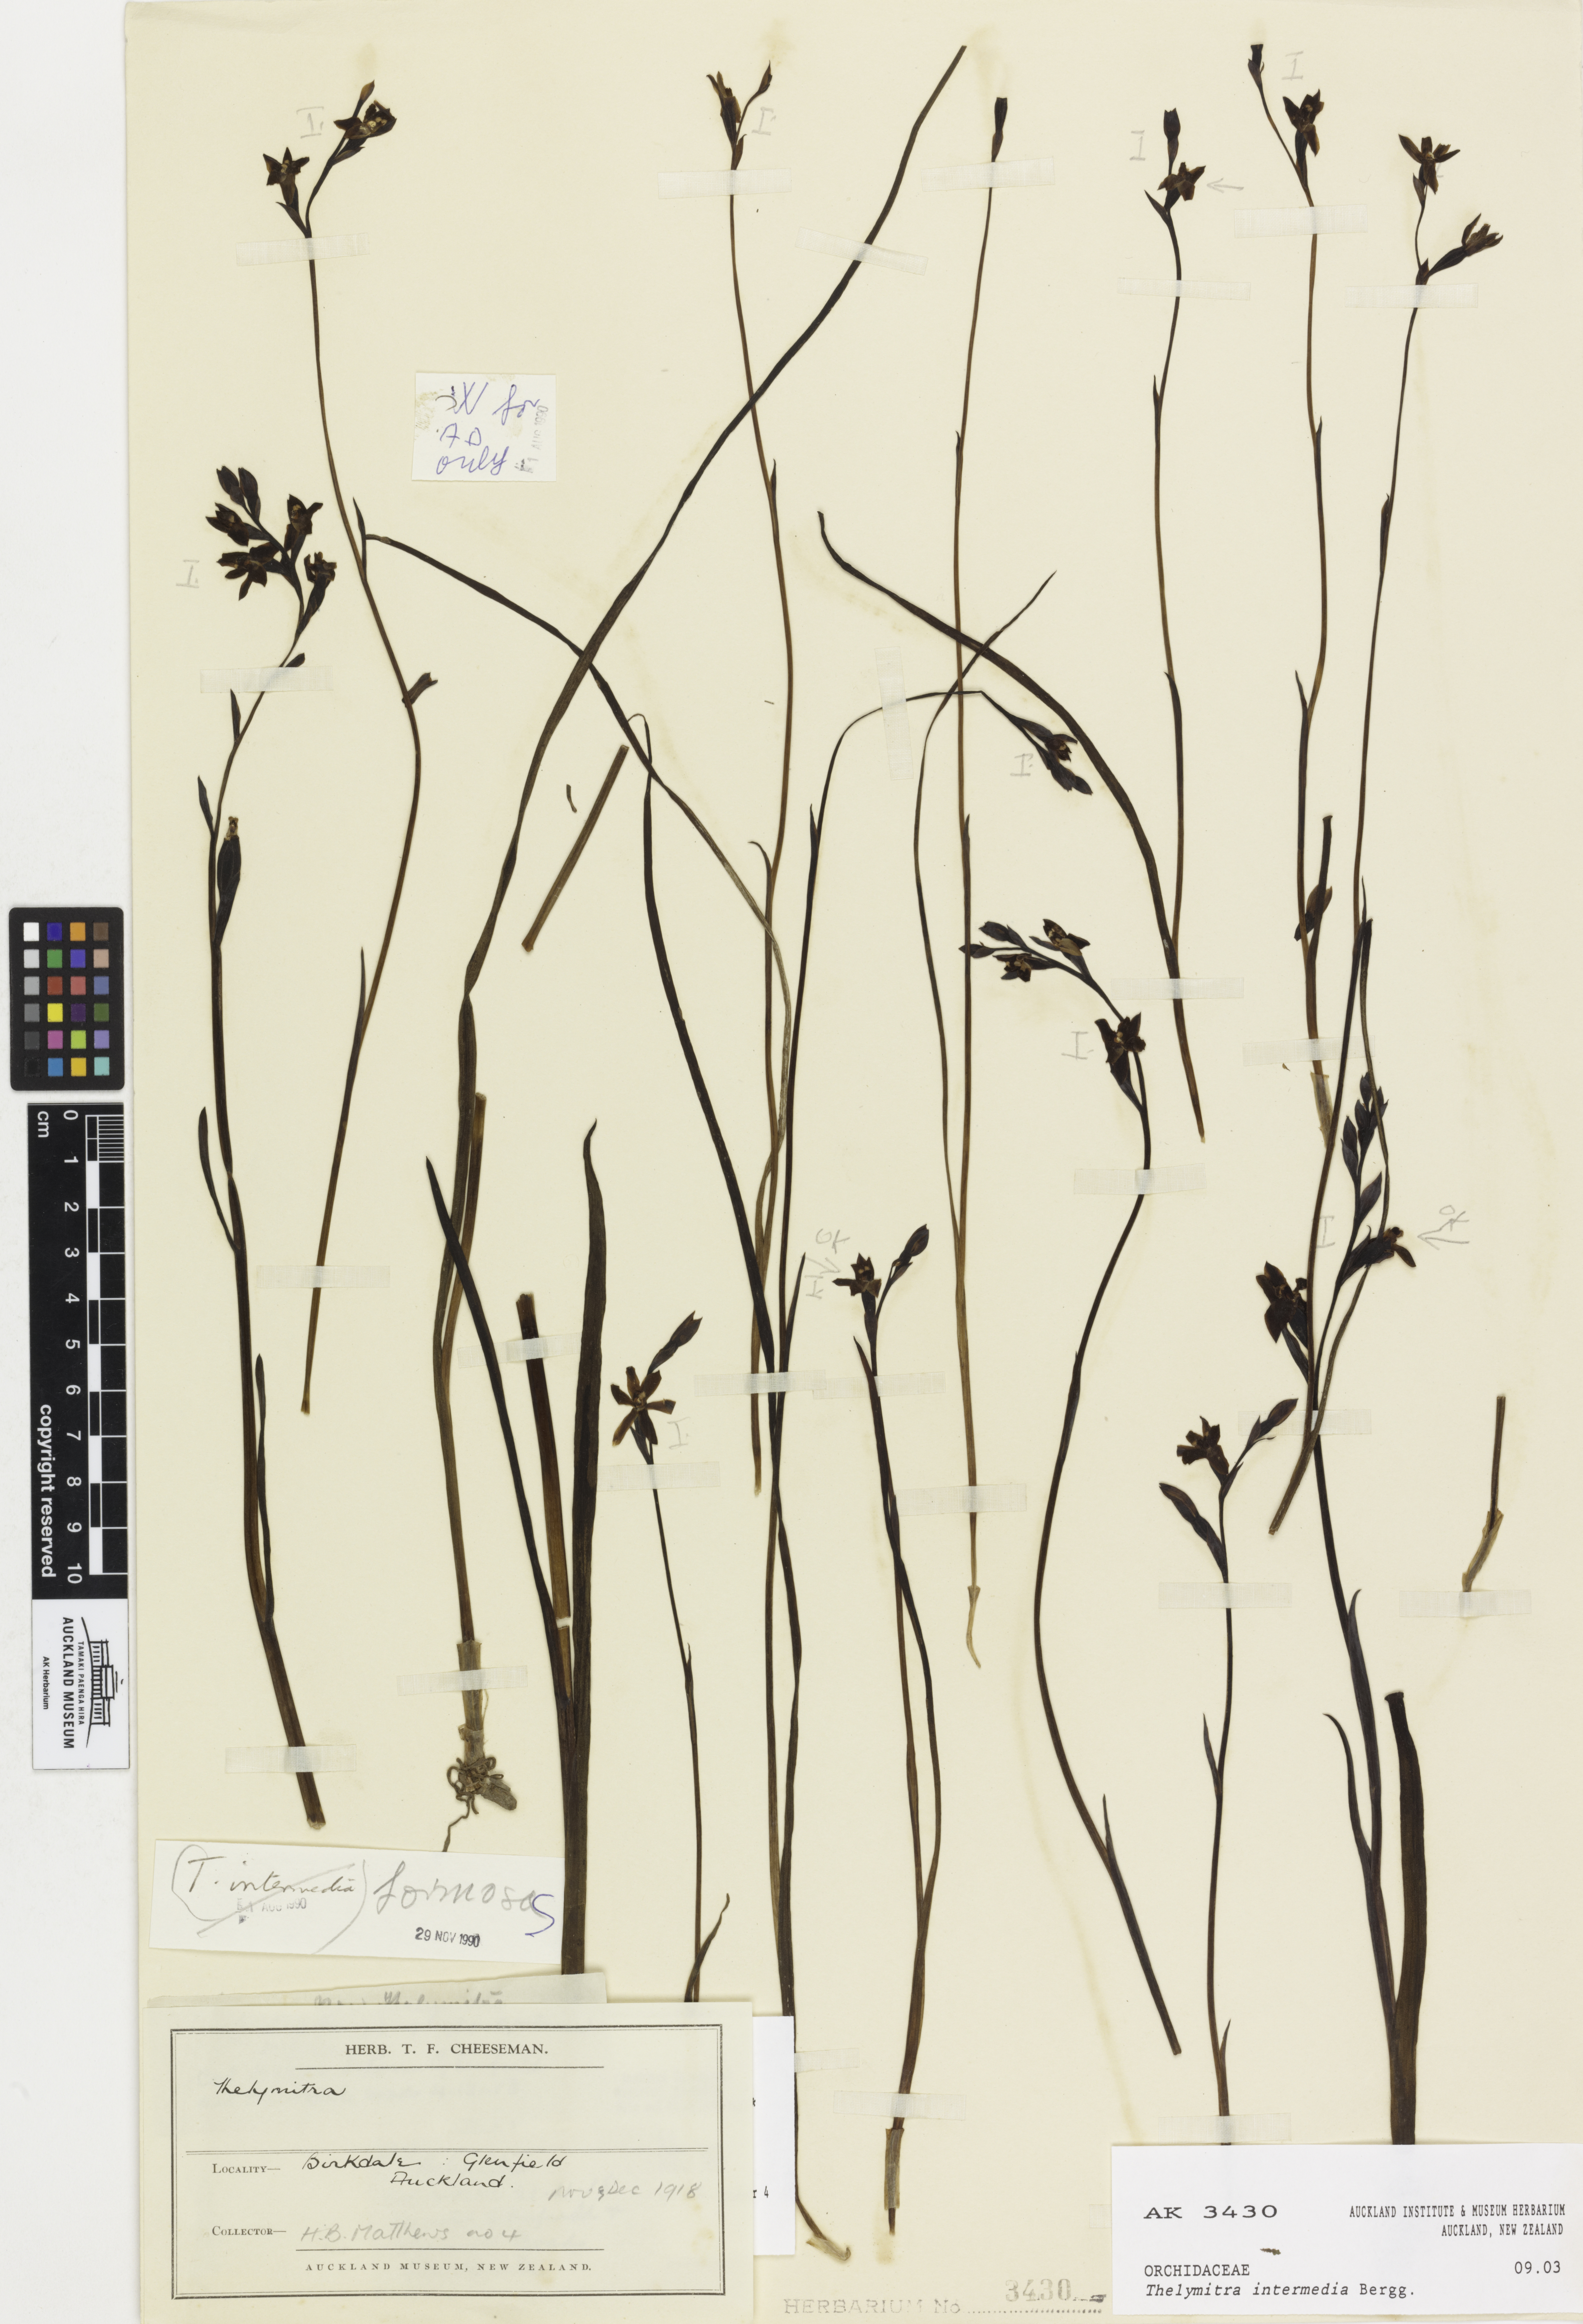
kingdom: Plantae
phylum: Tracheophyta
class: Liliopsida
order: Asparagales
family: Orchidaceae
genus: Thelymitra
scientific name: Thelymitra colensoi
